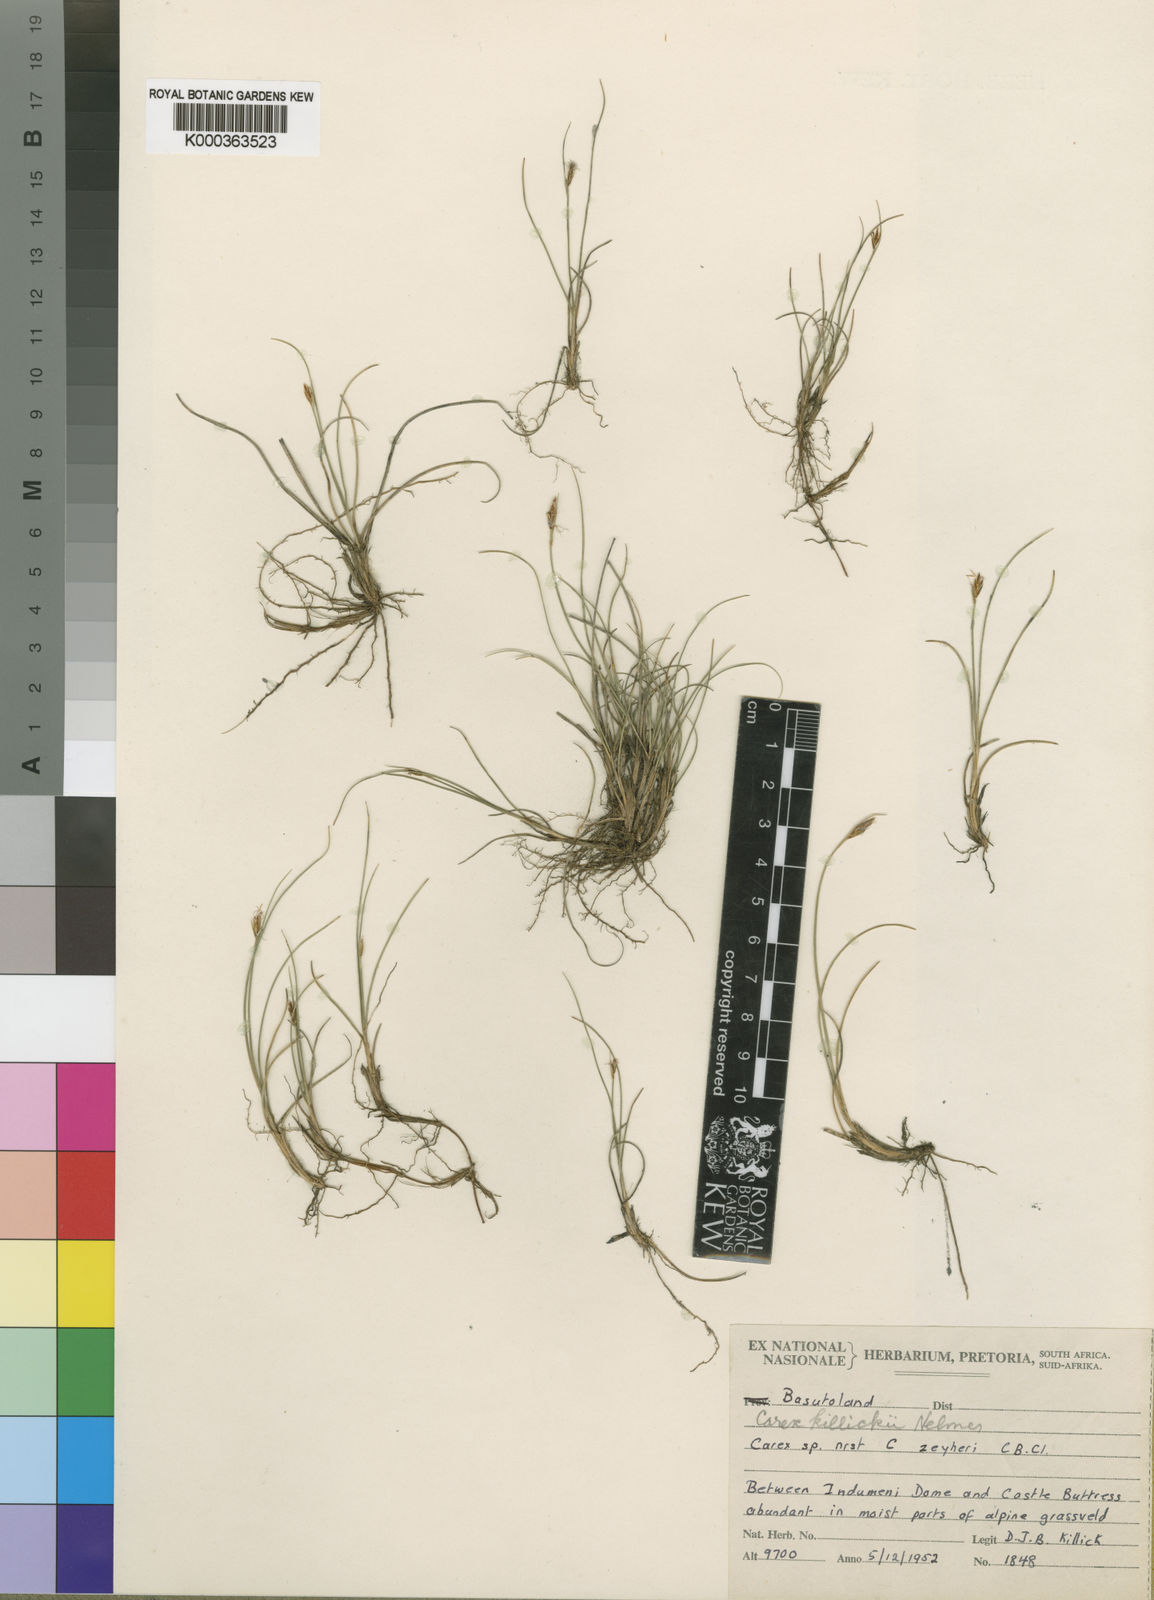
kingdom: Plantae
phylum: Tracheophyta
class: Liliopsida
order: Poales
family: Cyperaceae
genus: Carex
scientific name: Carex
